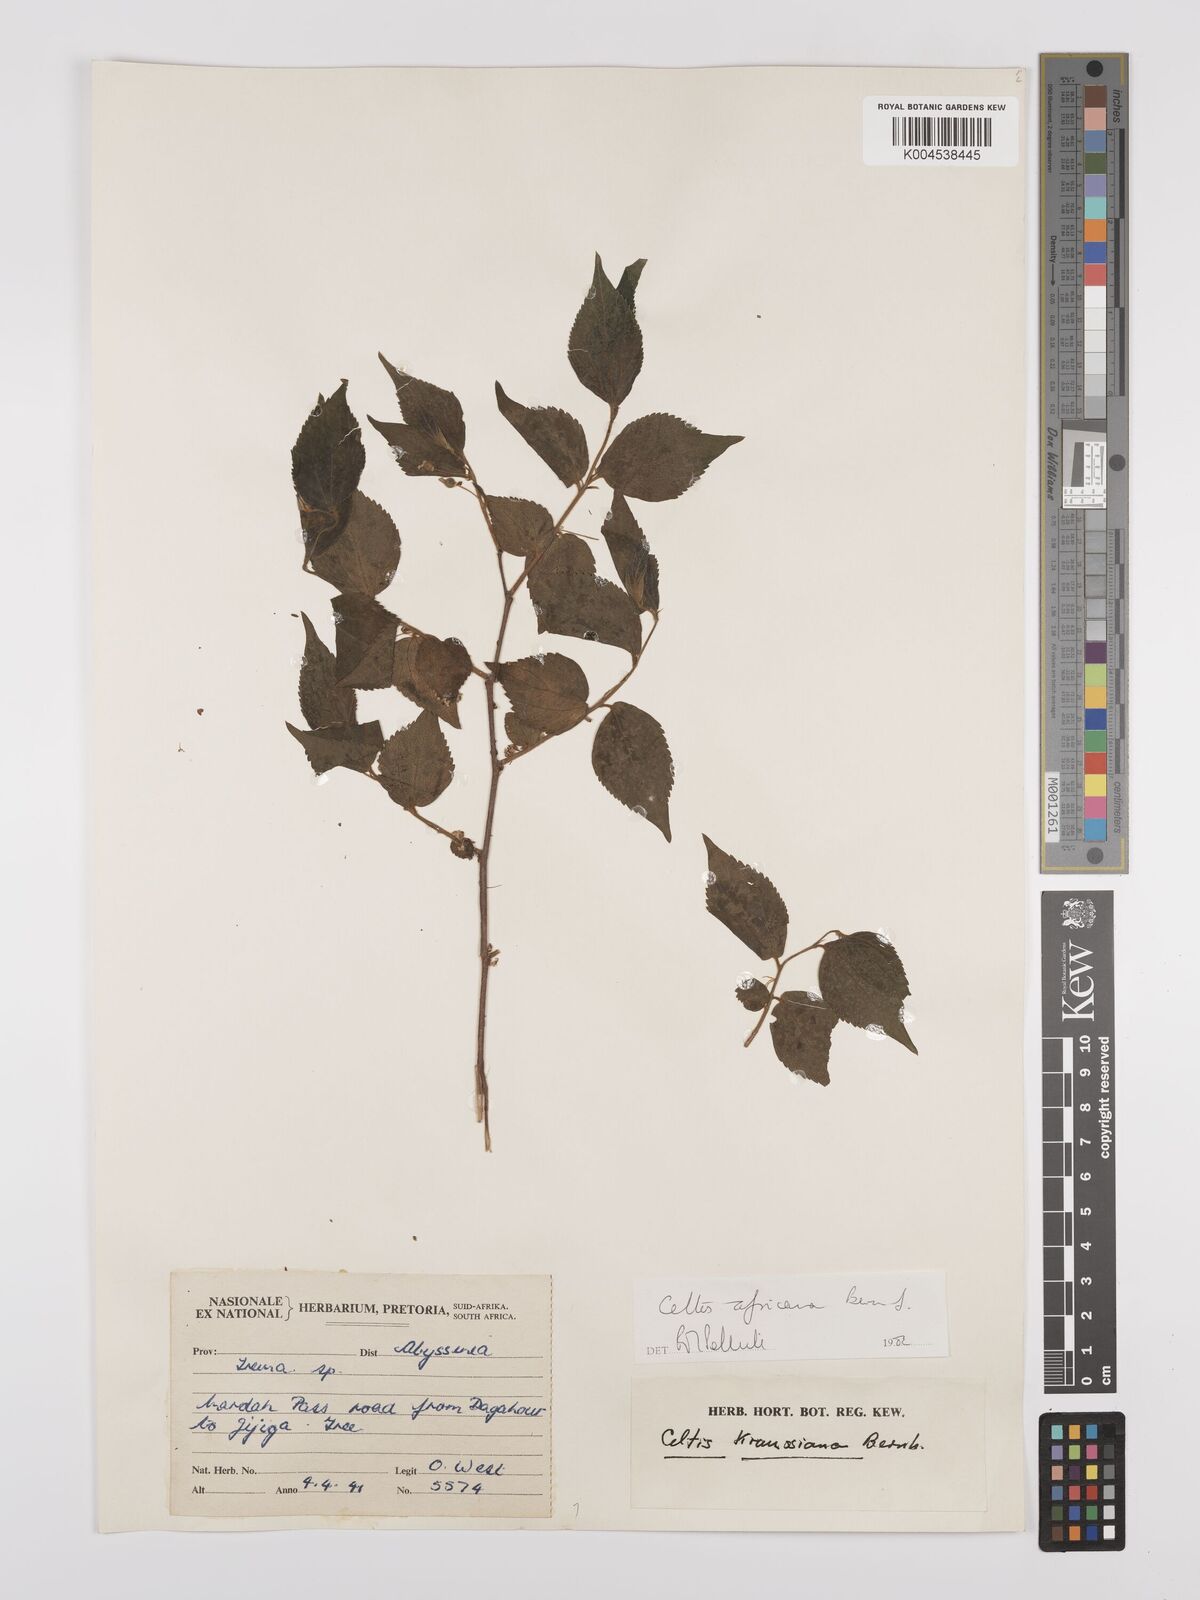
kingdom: Plantae
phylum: Tracheophyta
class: Magnoliopsida
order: Rosales
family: Cannabaceae
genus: Celtis
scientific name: Celtis africana
